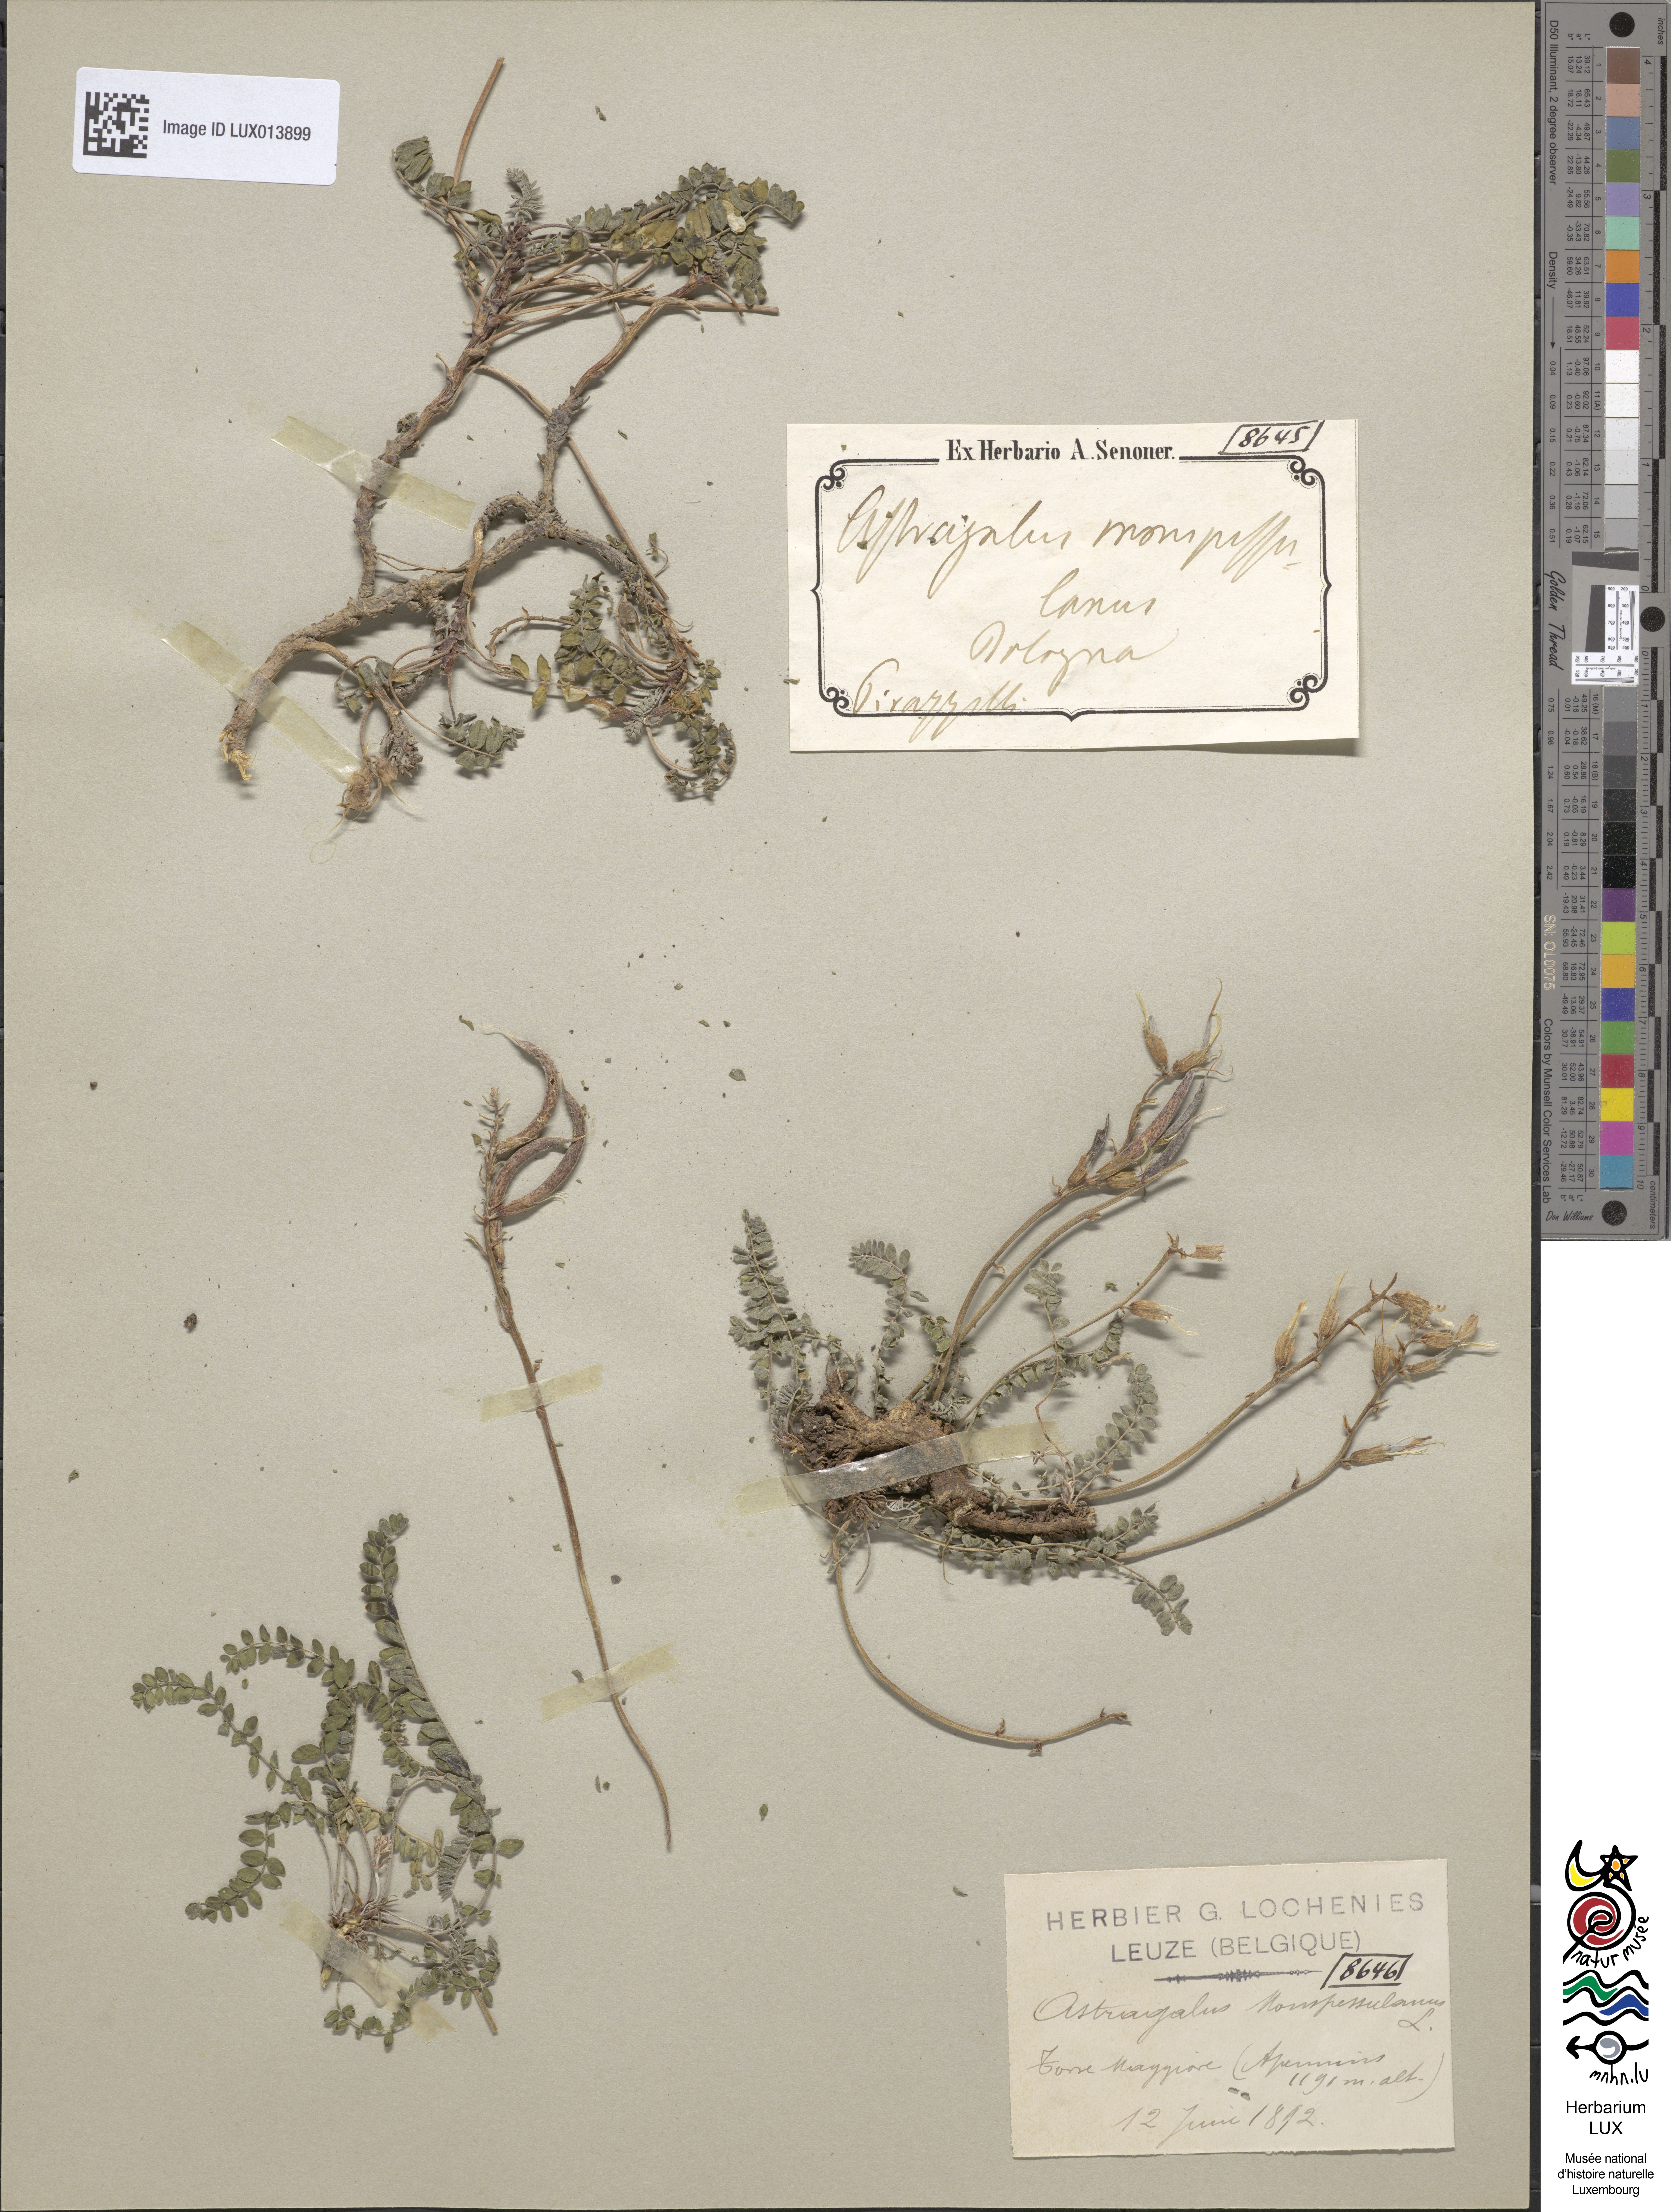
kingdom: Plantae
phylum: Tracheophyta
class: Magnoliopsida
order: Fabales
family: Fabaceae
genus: Astragalus
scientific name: Astragalus monspessulanus
